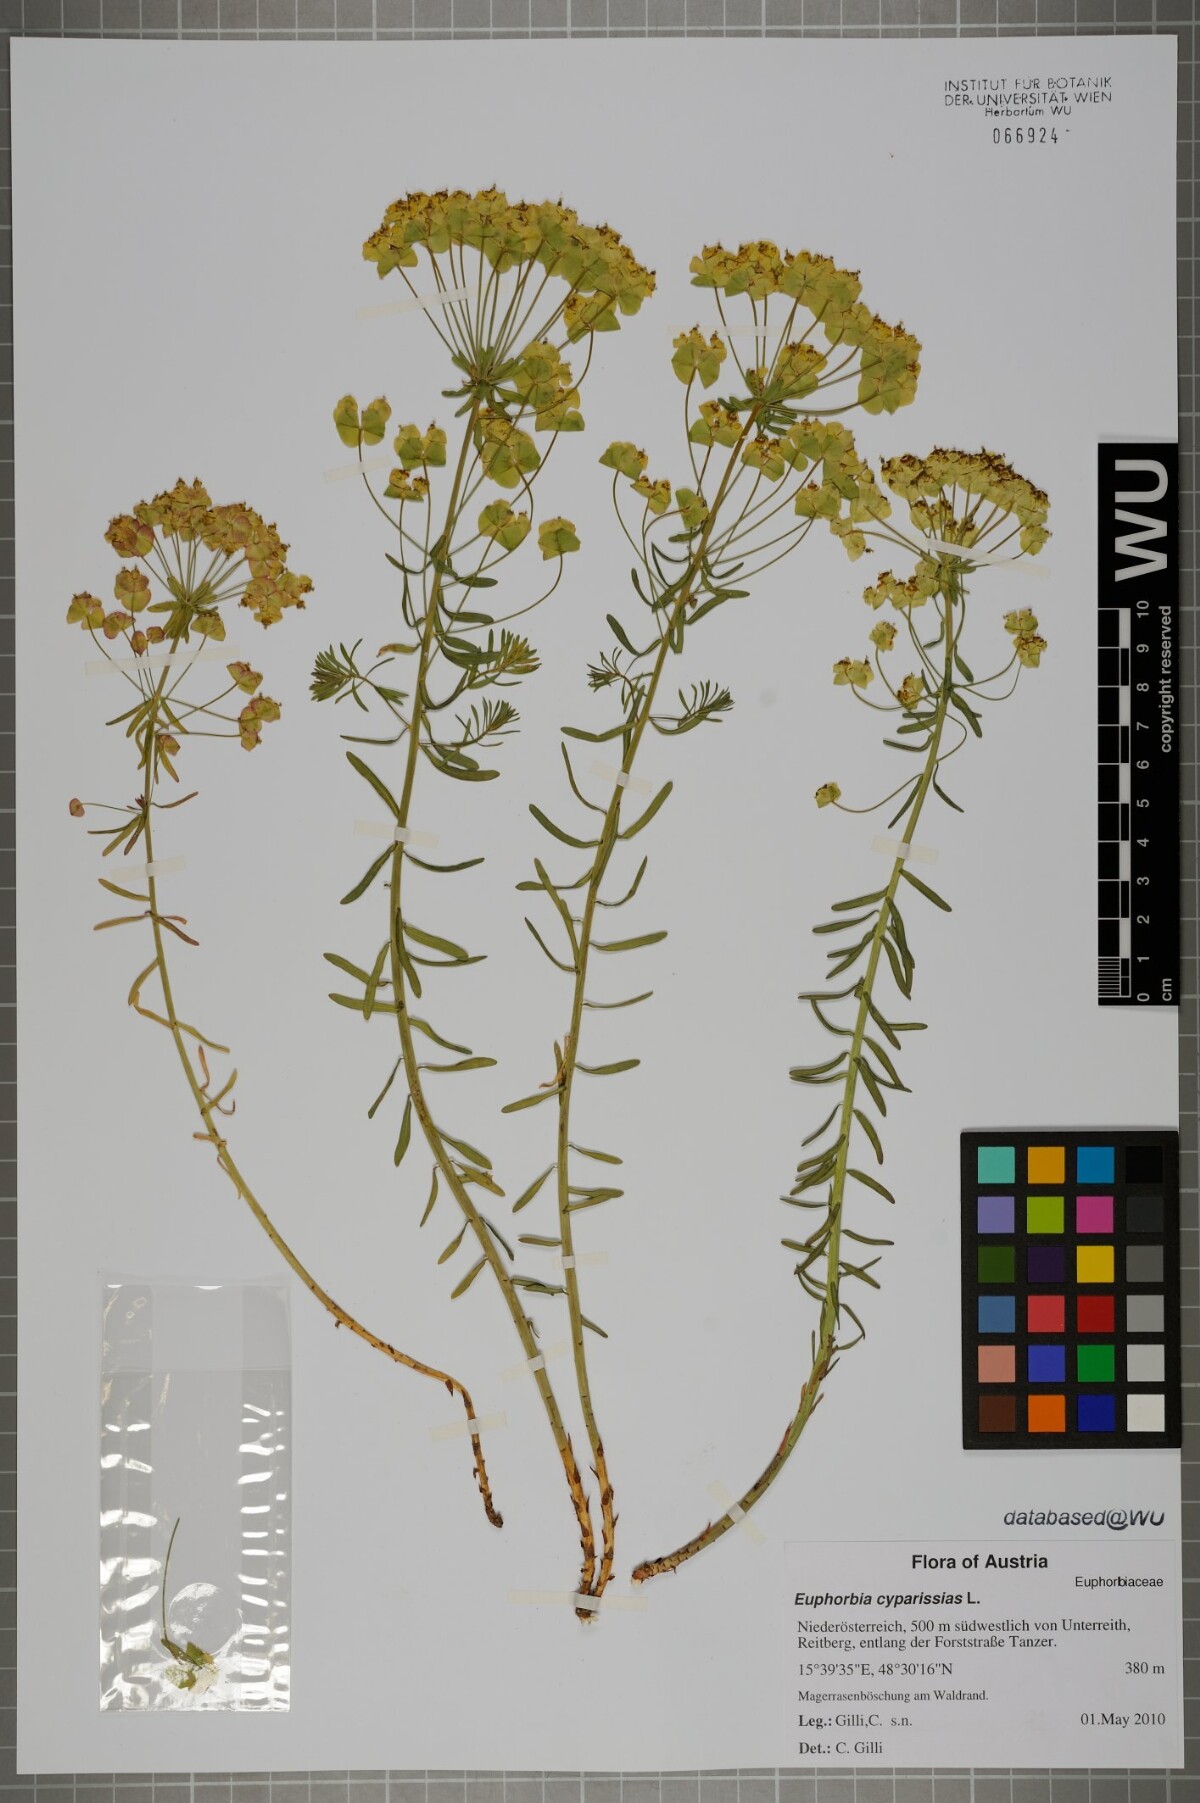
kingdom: Plantae
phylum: Tracheophyta
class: Magnoliopsida
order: Malpighiales
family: Euphorbiaceae
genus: Euphorbia
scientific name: Euphorbia cyparissias
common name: Cypress spurge
